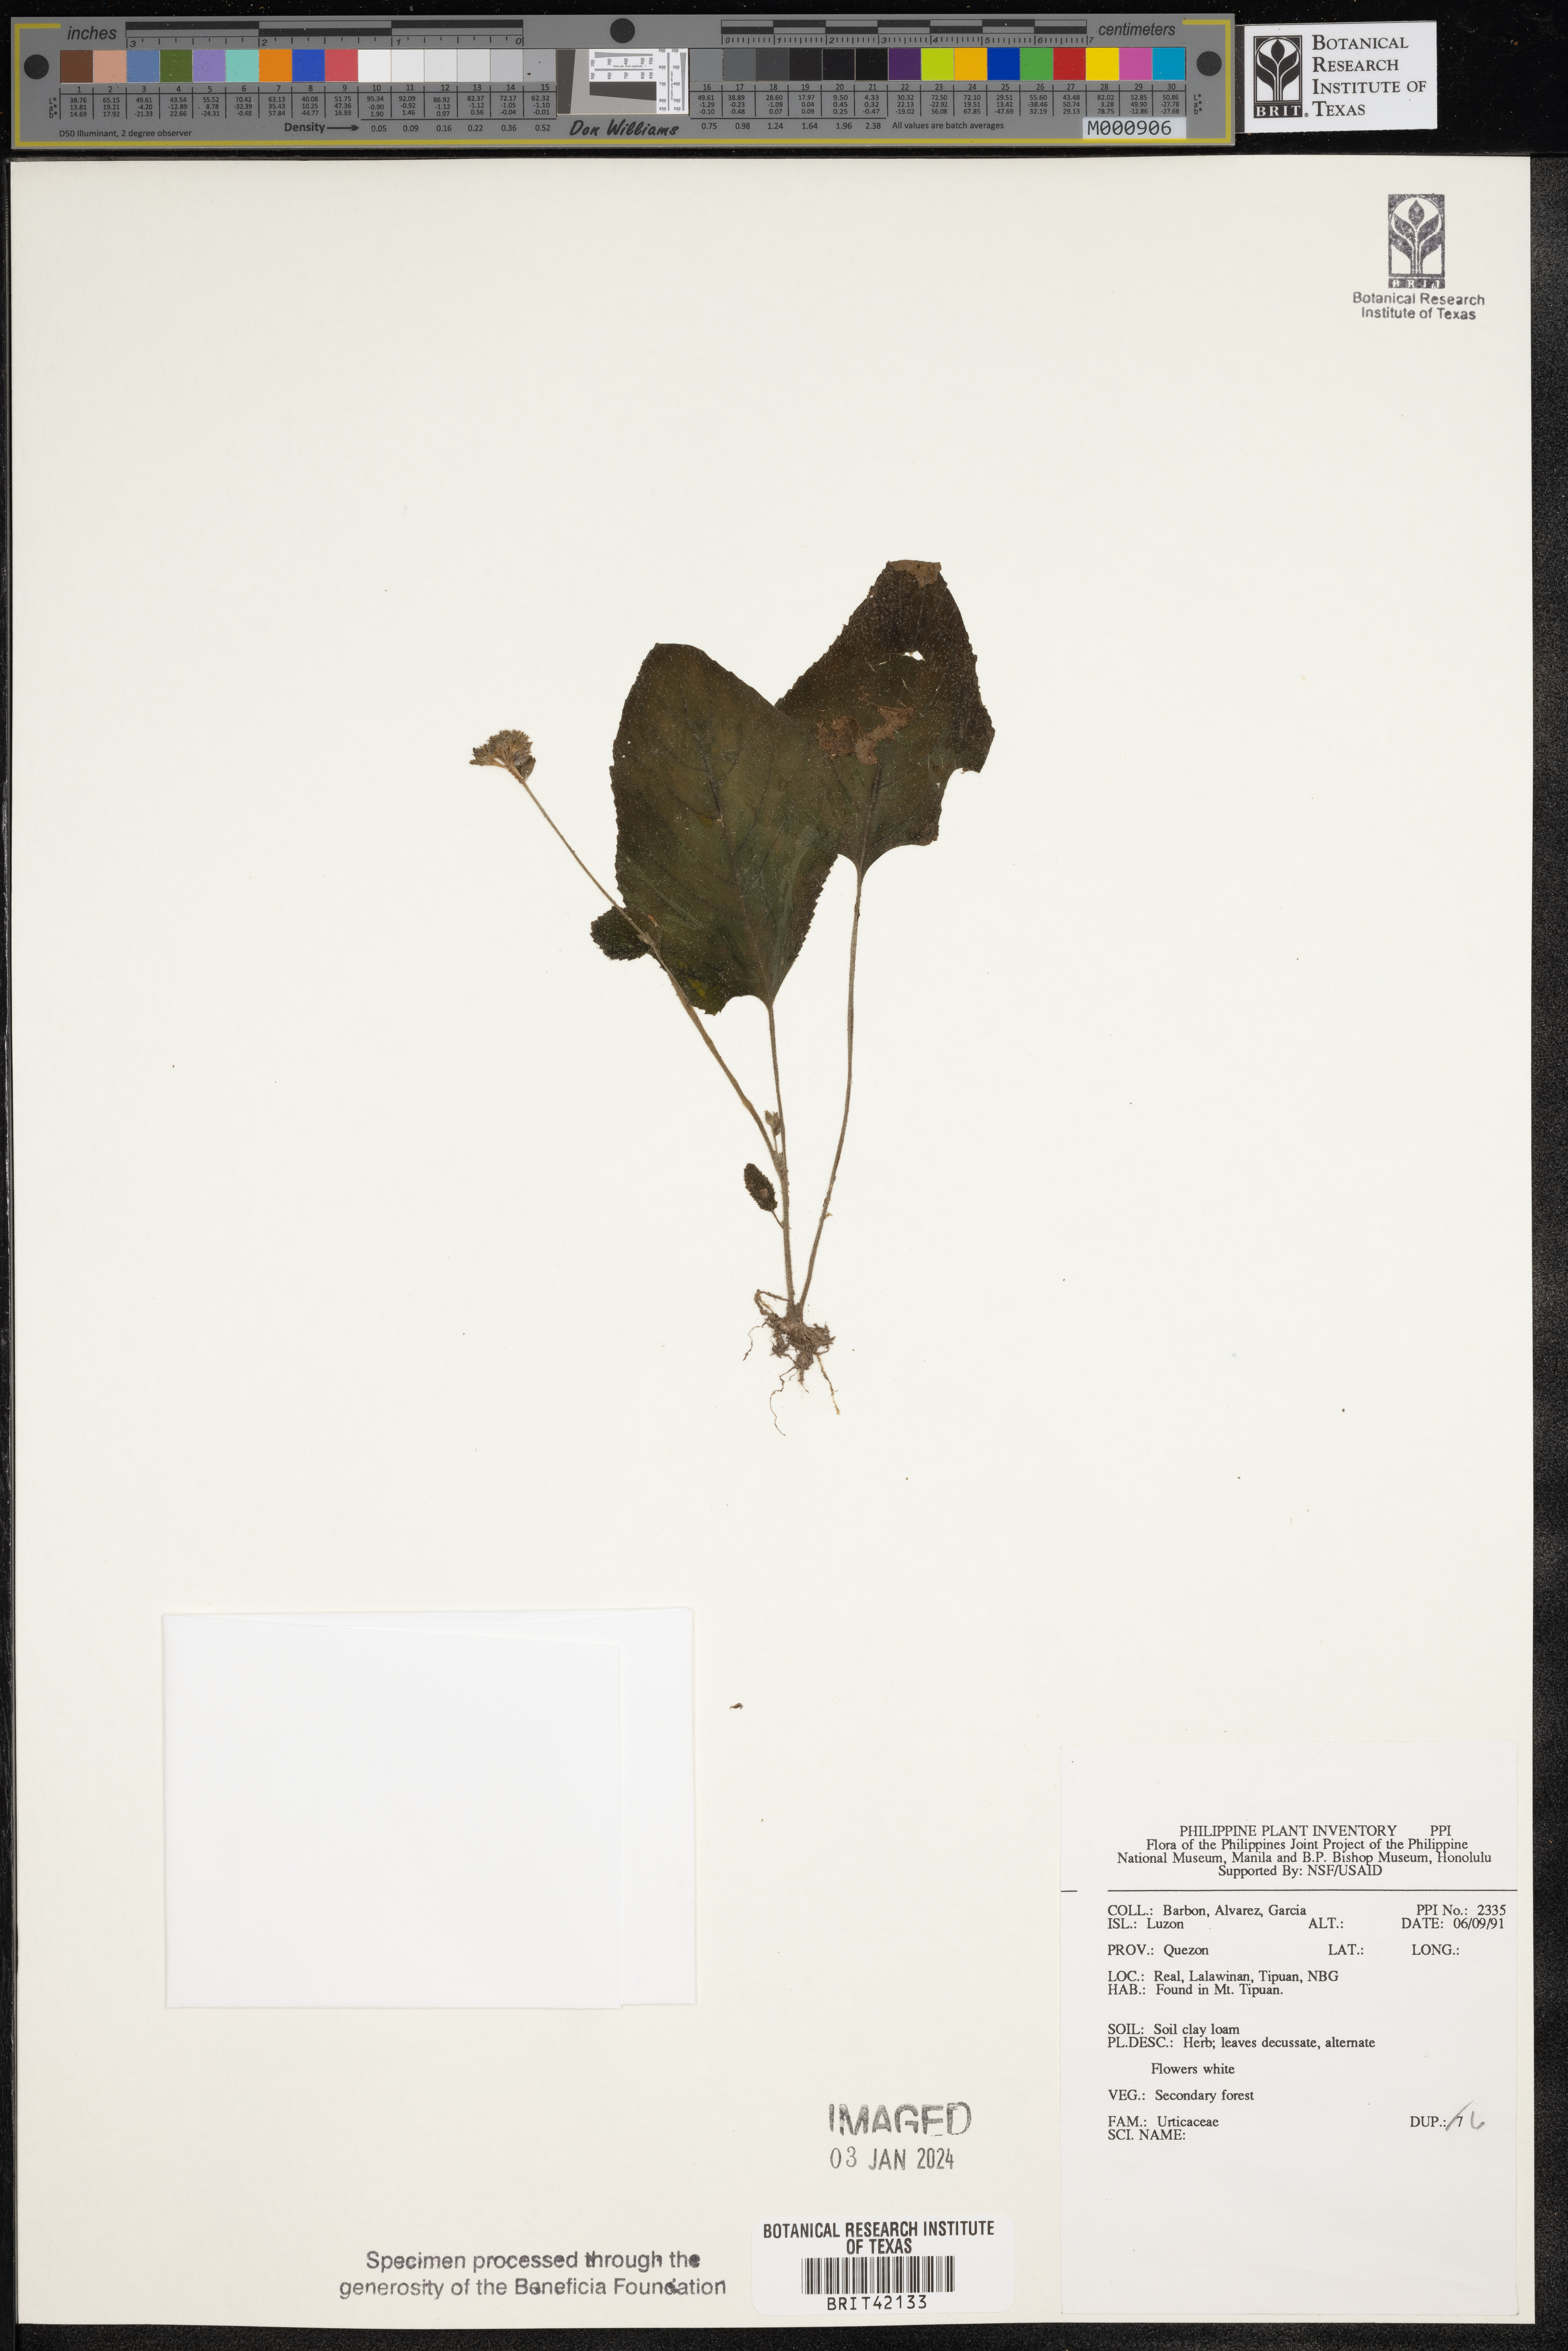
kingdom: Plantae
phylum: Tracheophyta
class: Magnoliopsida
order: Rosales
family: Urticaceae
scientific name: Urticaceae
